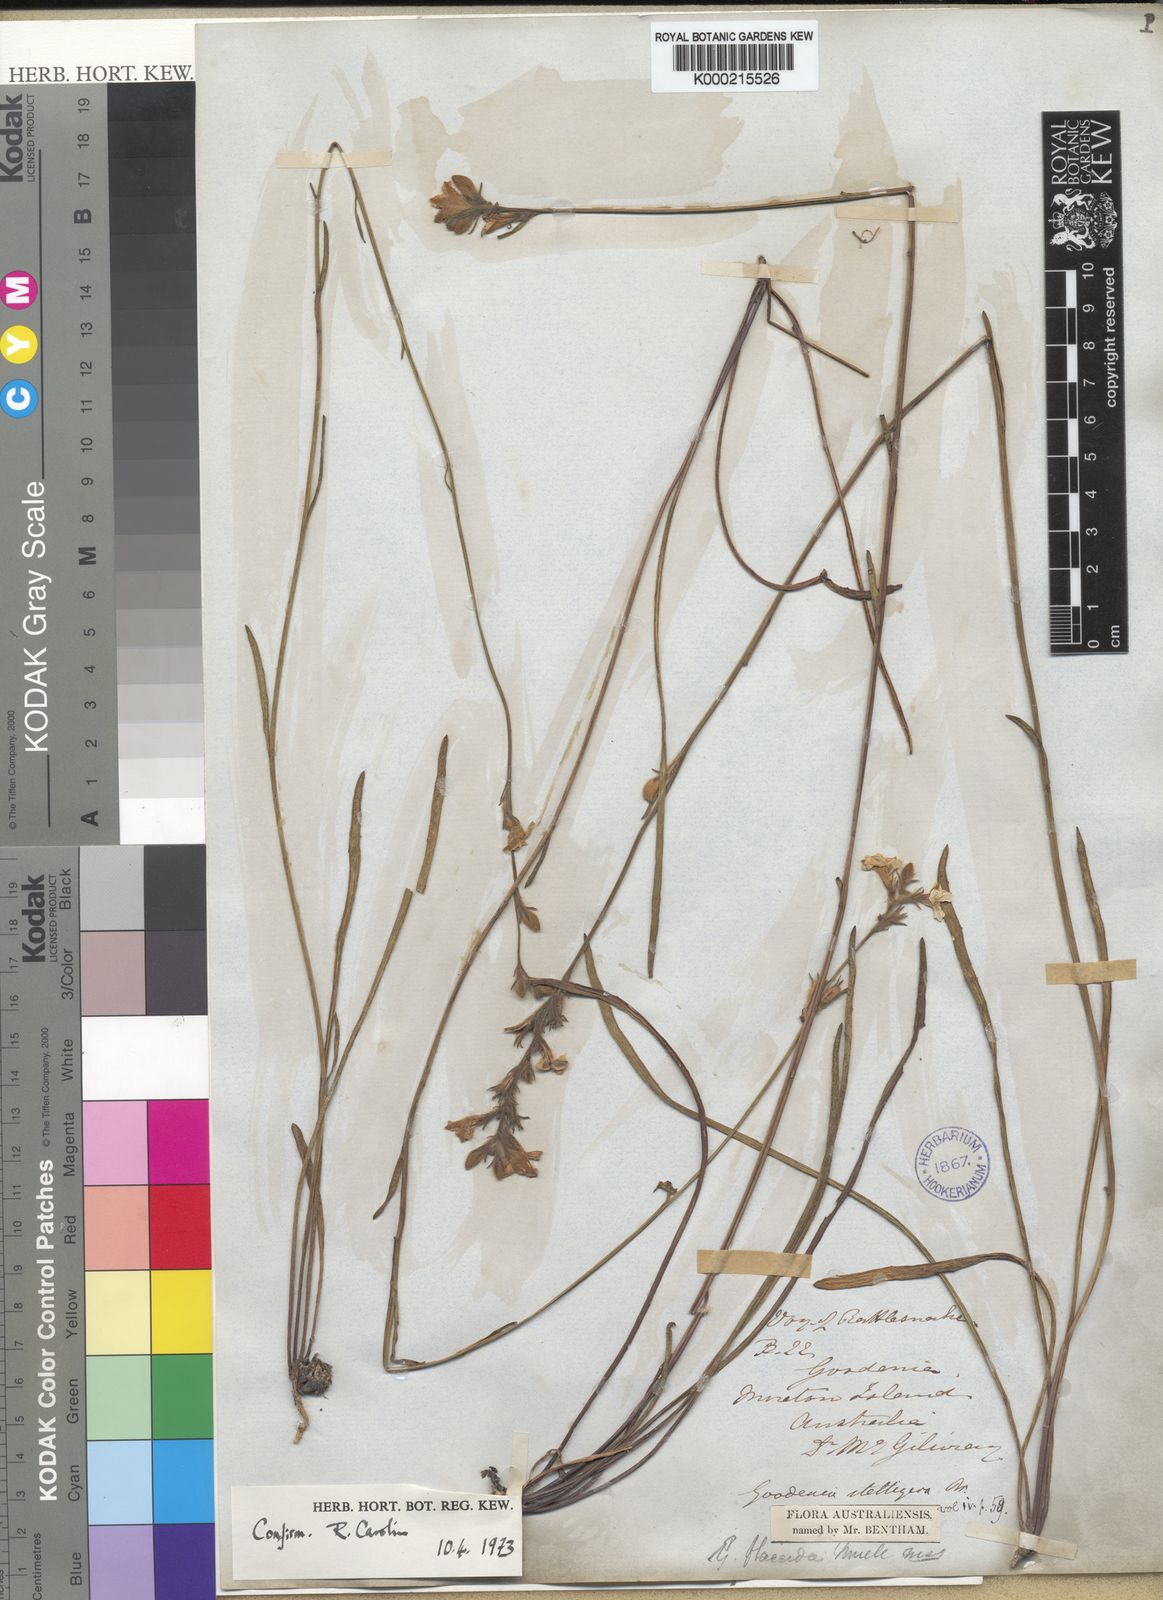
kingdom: Plantae
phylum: Tracheophyta
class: Magnoliopsida
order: Asterales
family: Goodeniaceae
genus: Goodenia
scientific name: Goodenia stelligera
